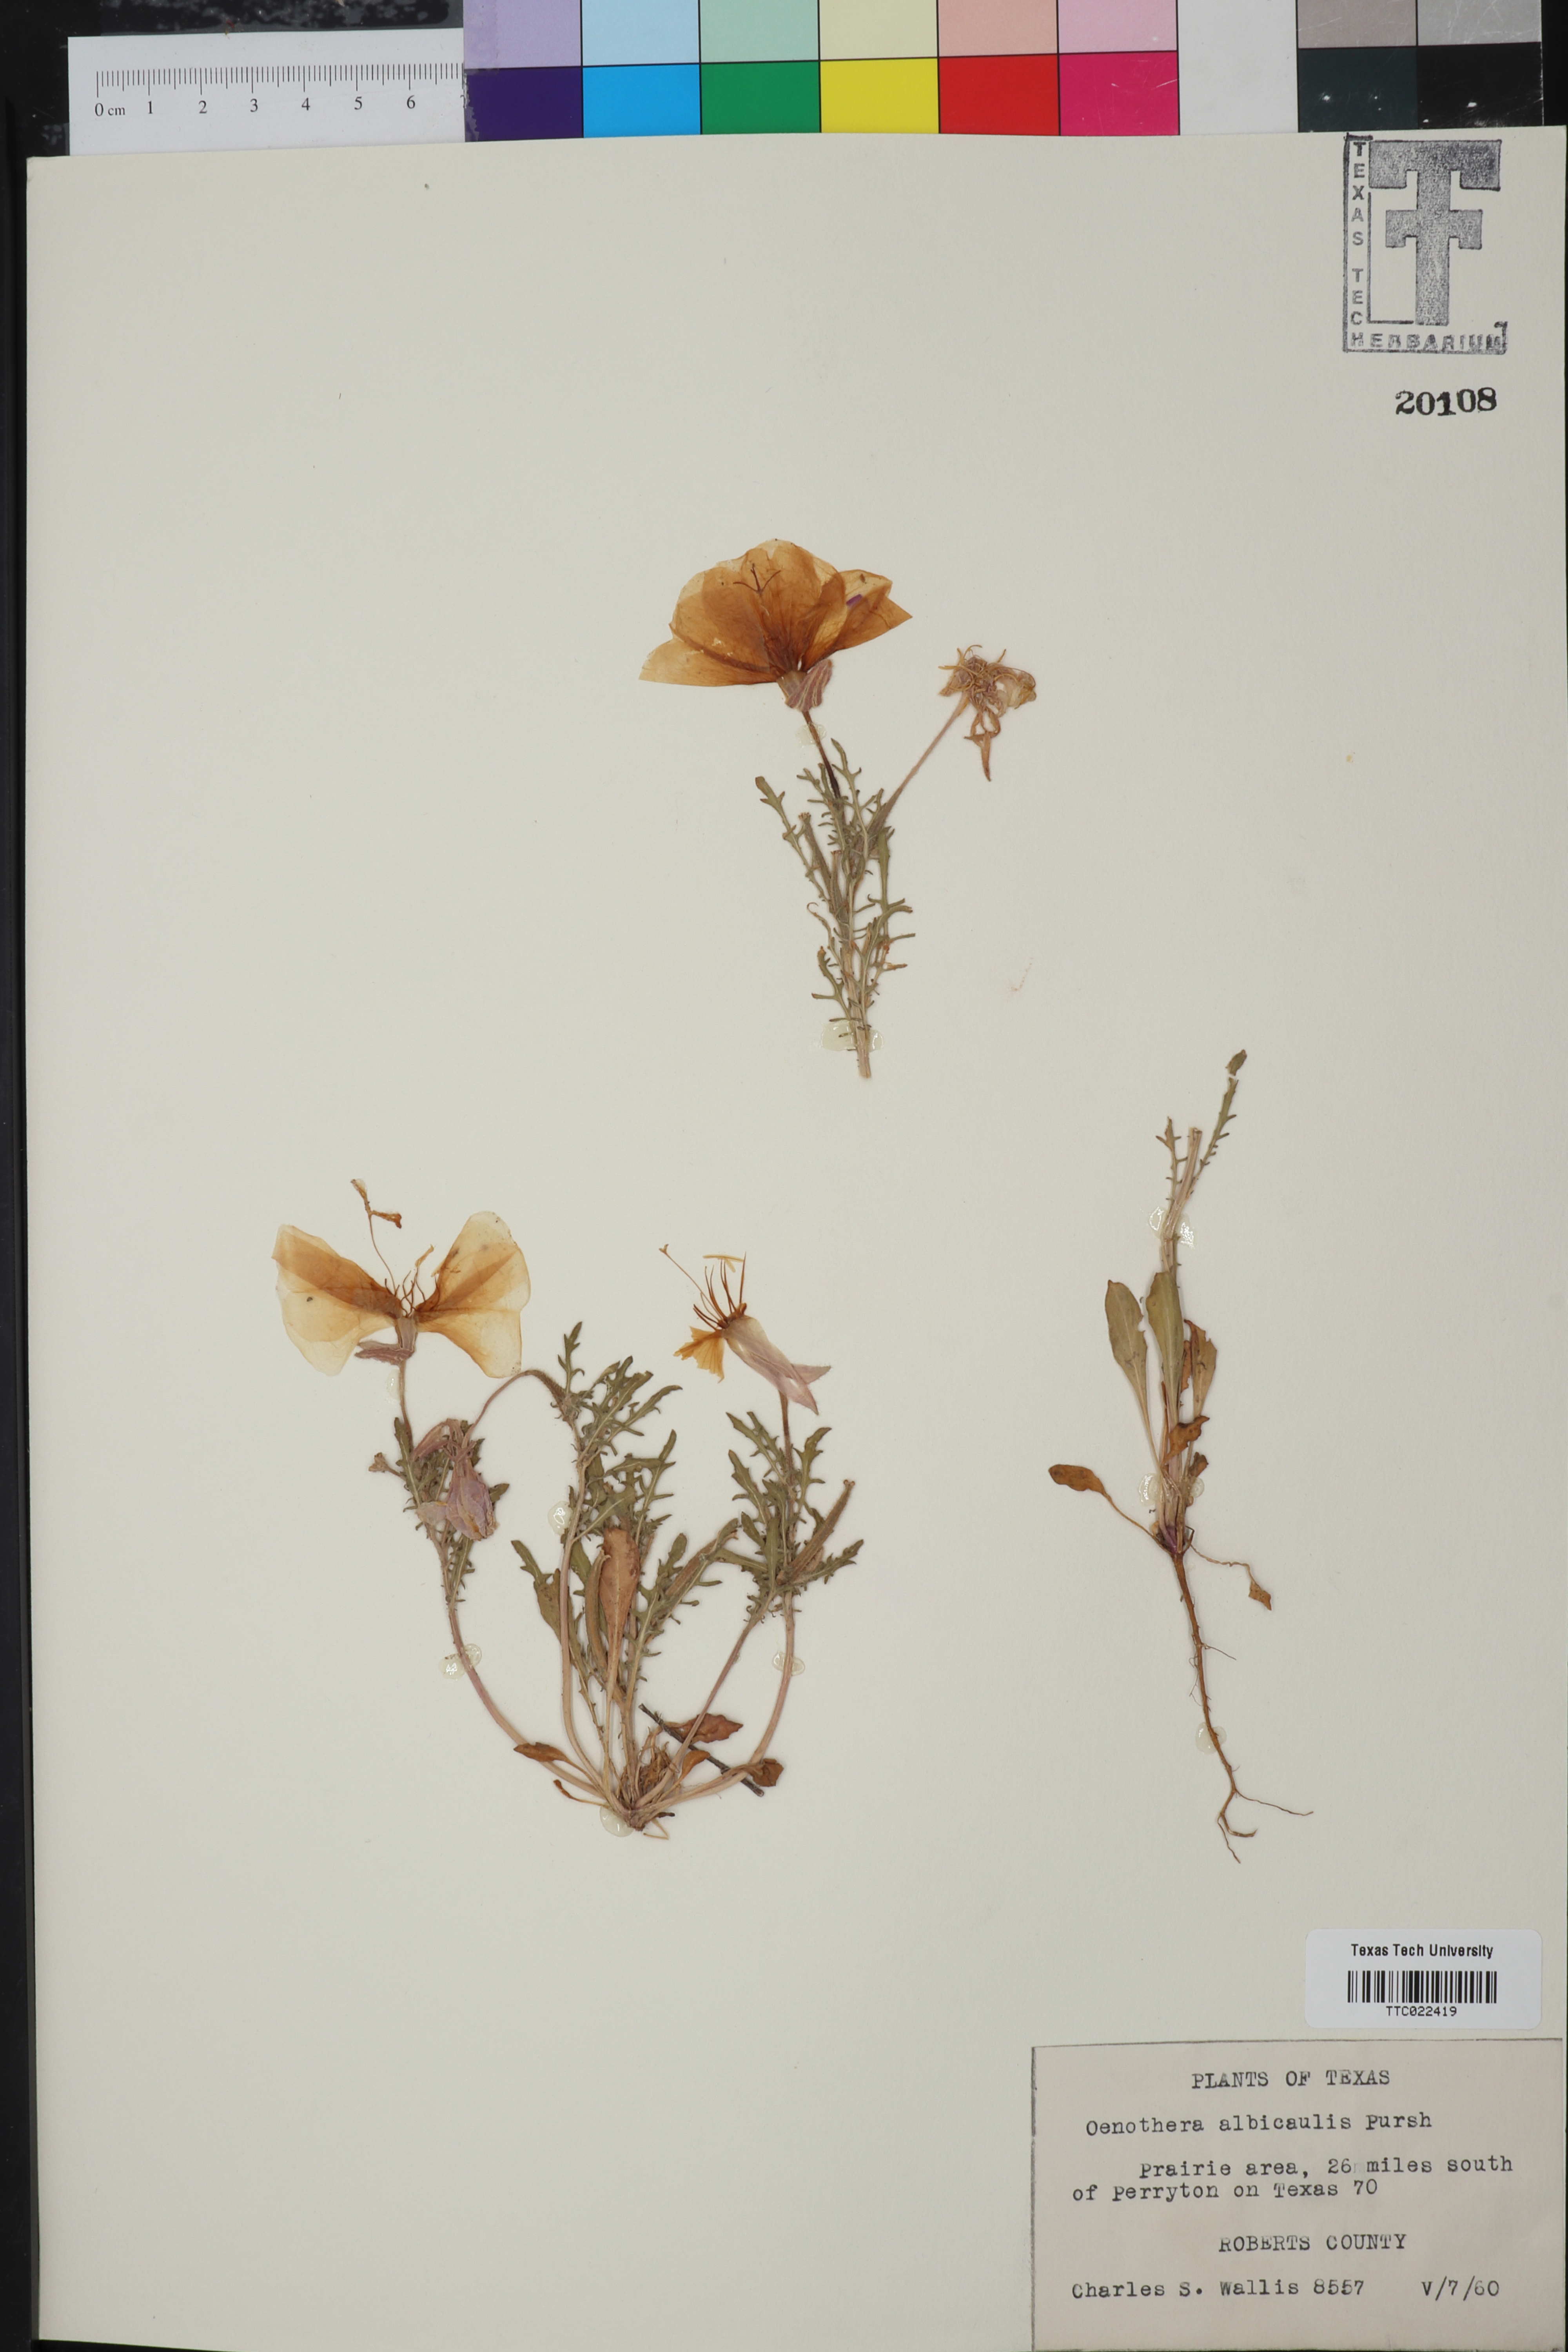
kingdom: Plantae
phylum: Tracheophyta
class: Magnoliopsida
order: Myrtales
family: Onagraceae
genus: Oenothera
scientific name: Oenothera albicaulis
